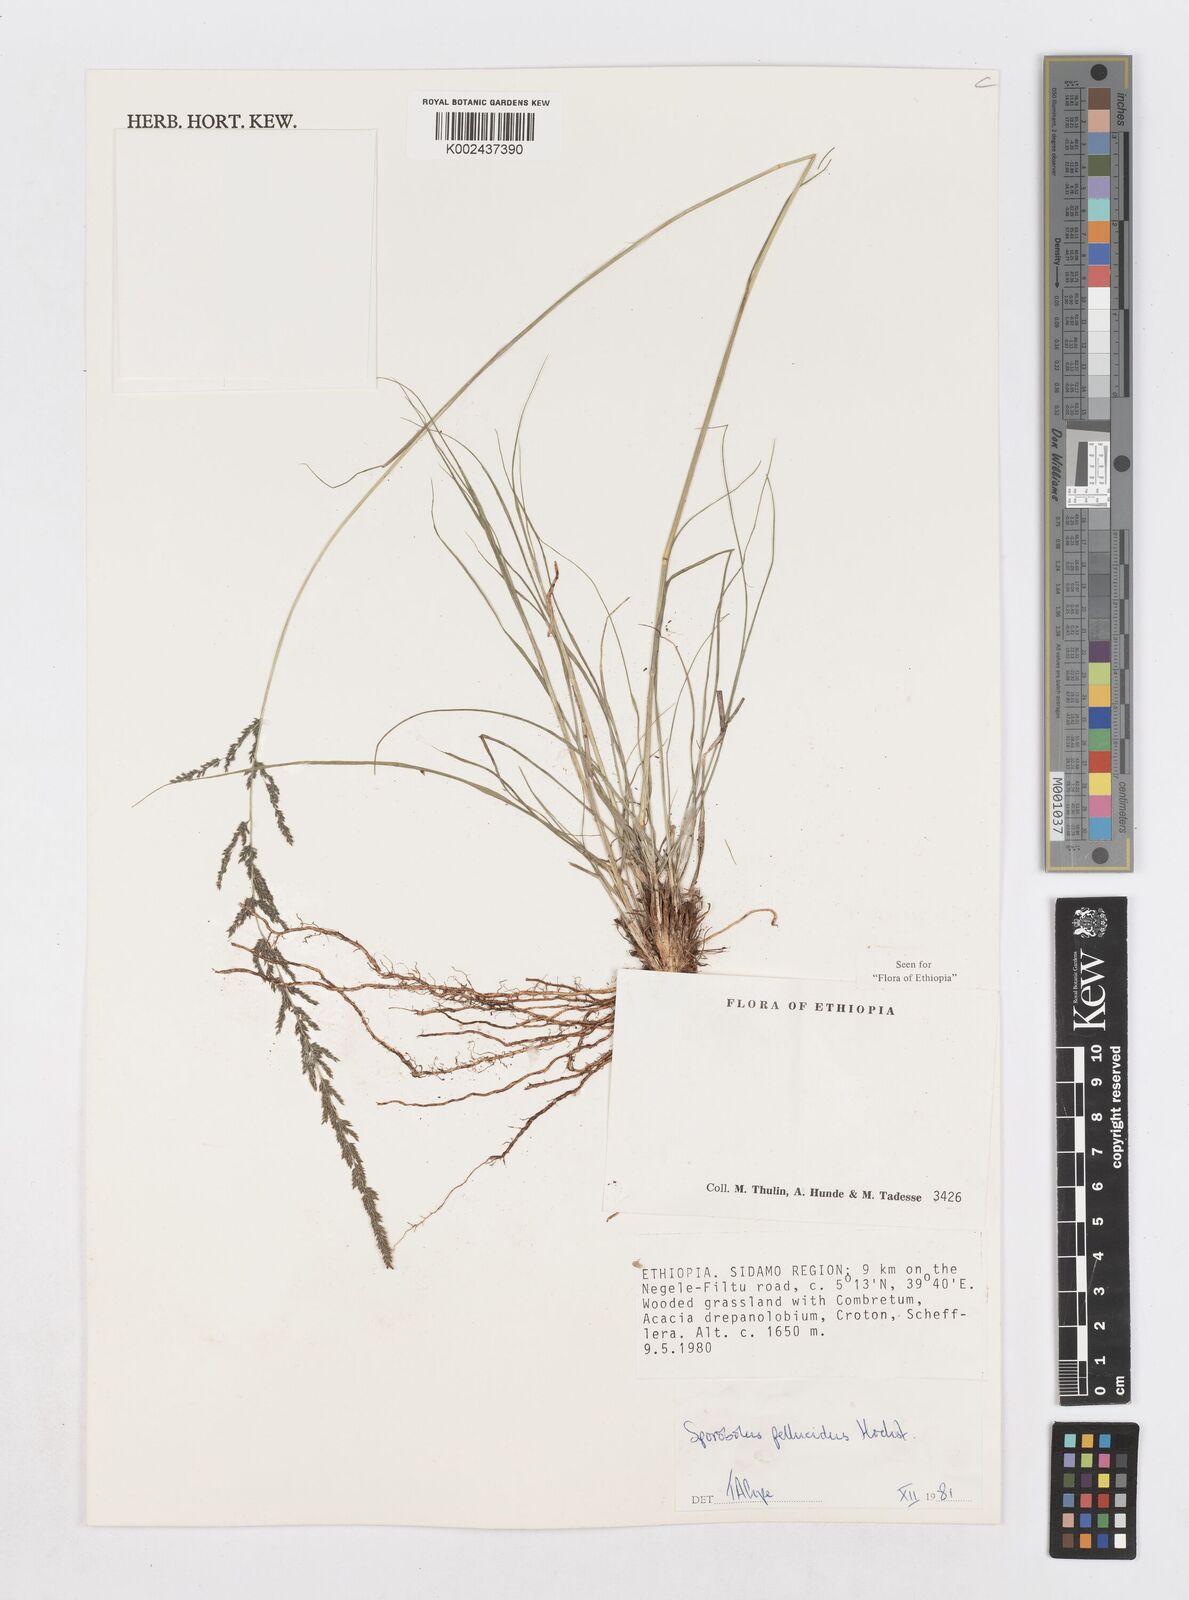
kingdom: Plantae
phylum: Tracheophyta
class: Liliopsida
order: Poales
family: Poaceae
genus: Sporobolus
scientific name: Sporobolus pellucidus
